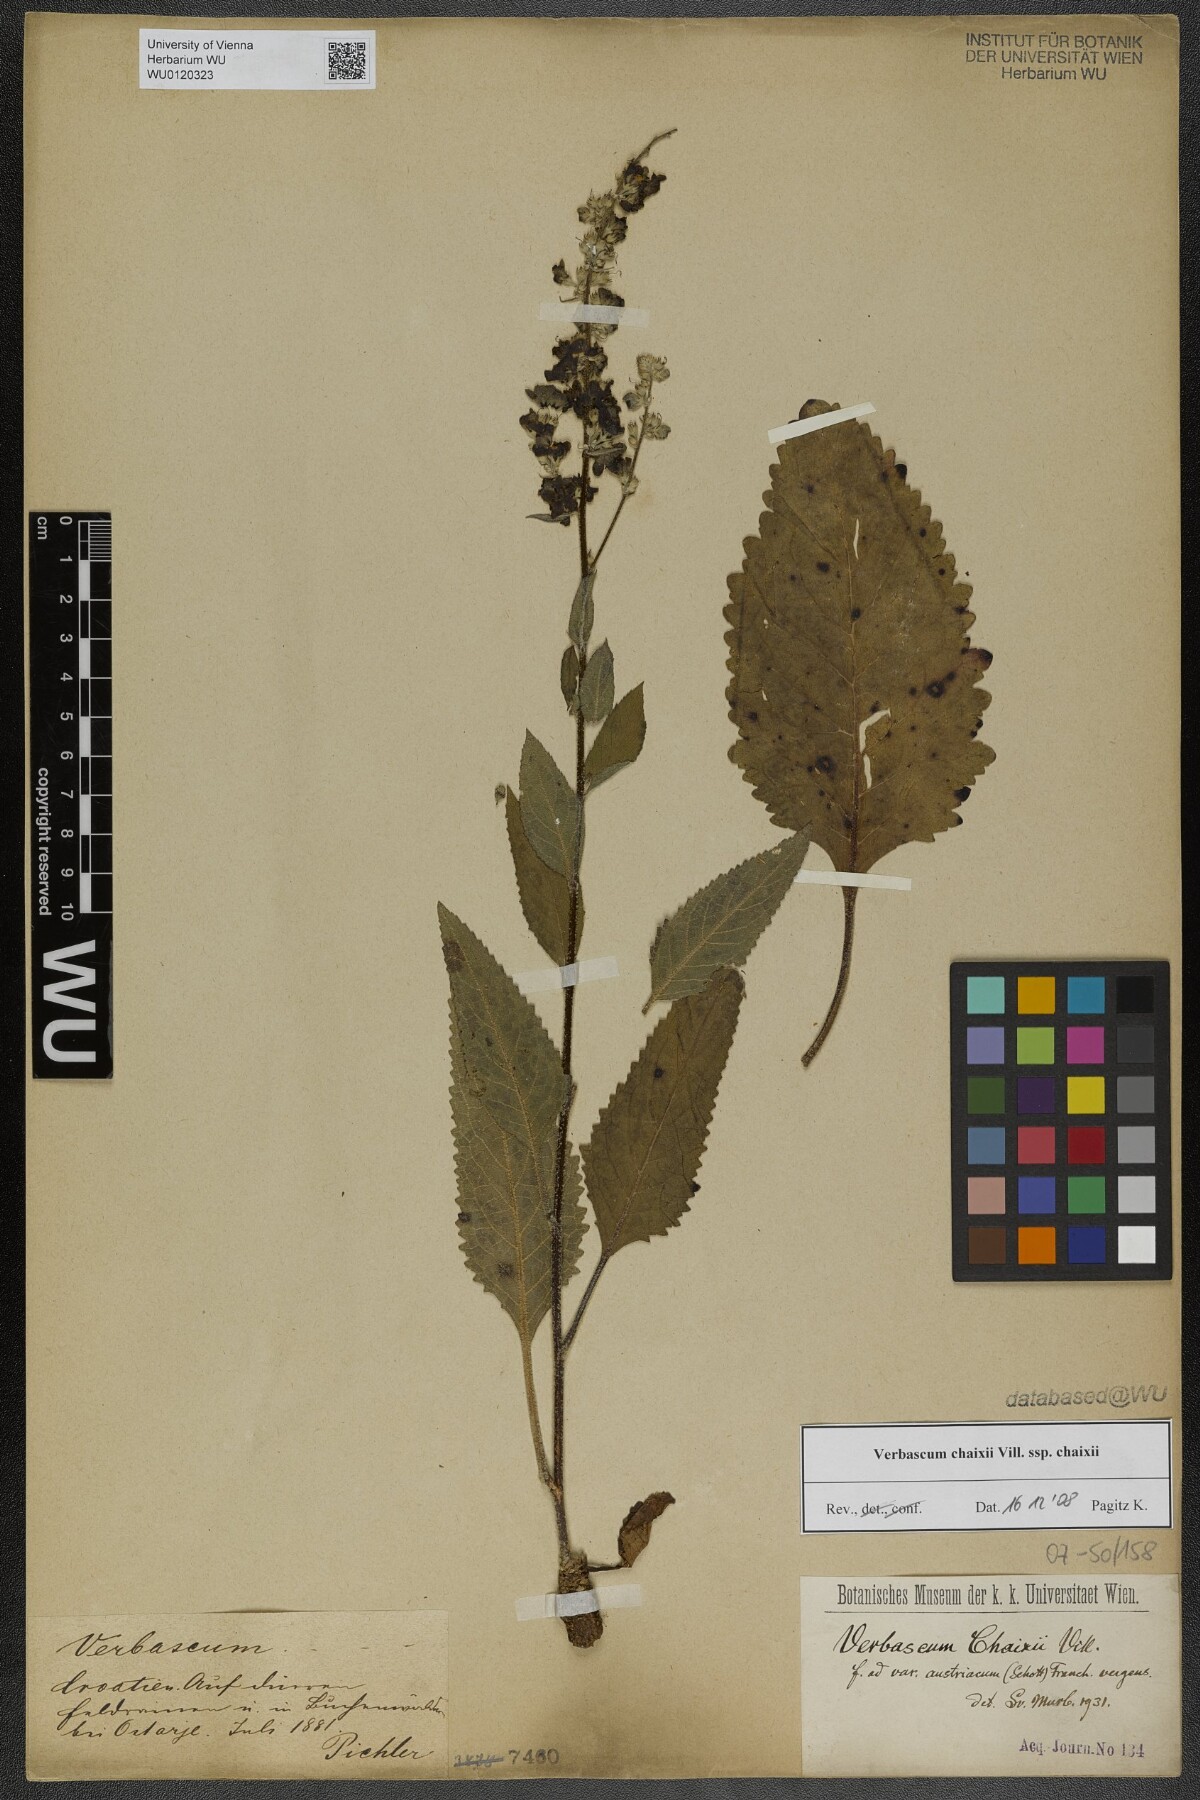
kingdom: Plantae
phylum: Tracheophyta
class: Magnoliopsida
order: Lamiales
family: Scrophulariaceae
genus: Verbascum
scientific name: Verbascum chaixii
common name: Nettle-leaved mullein
